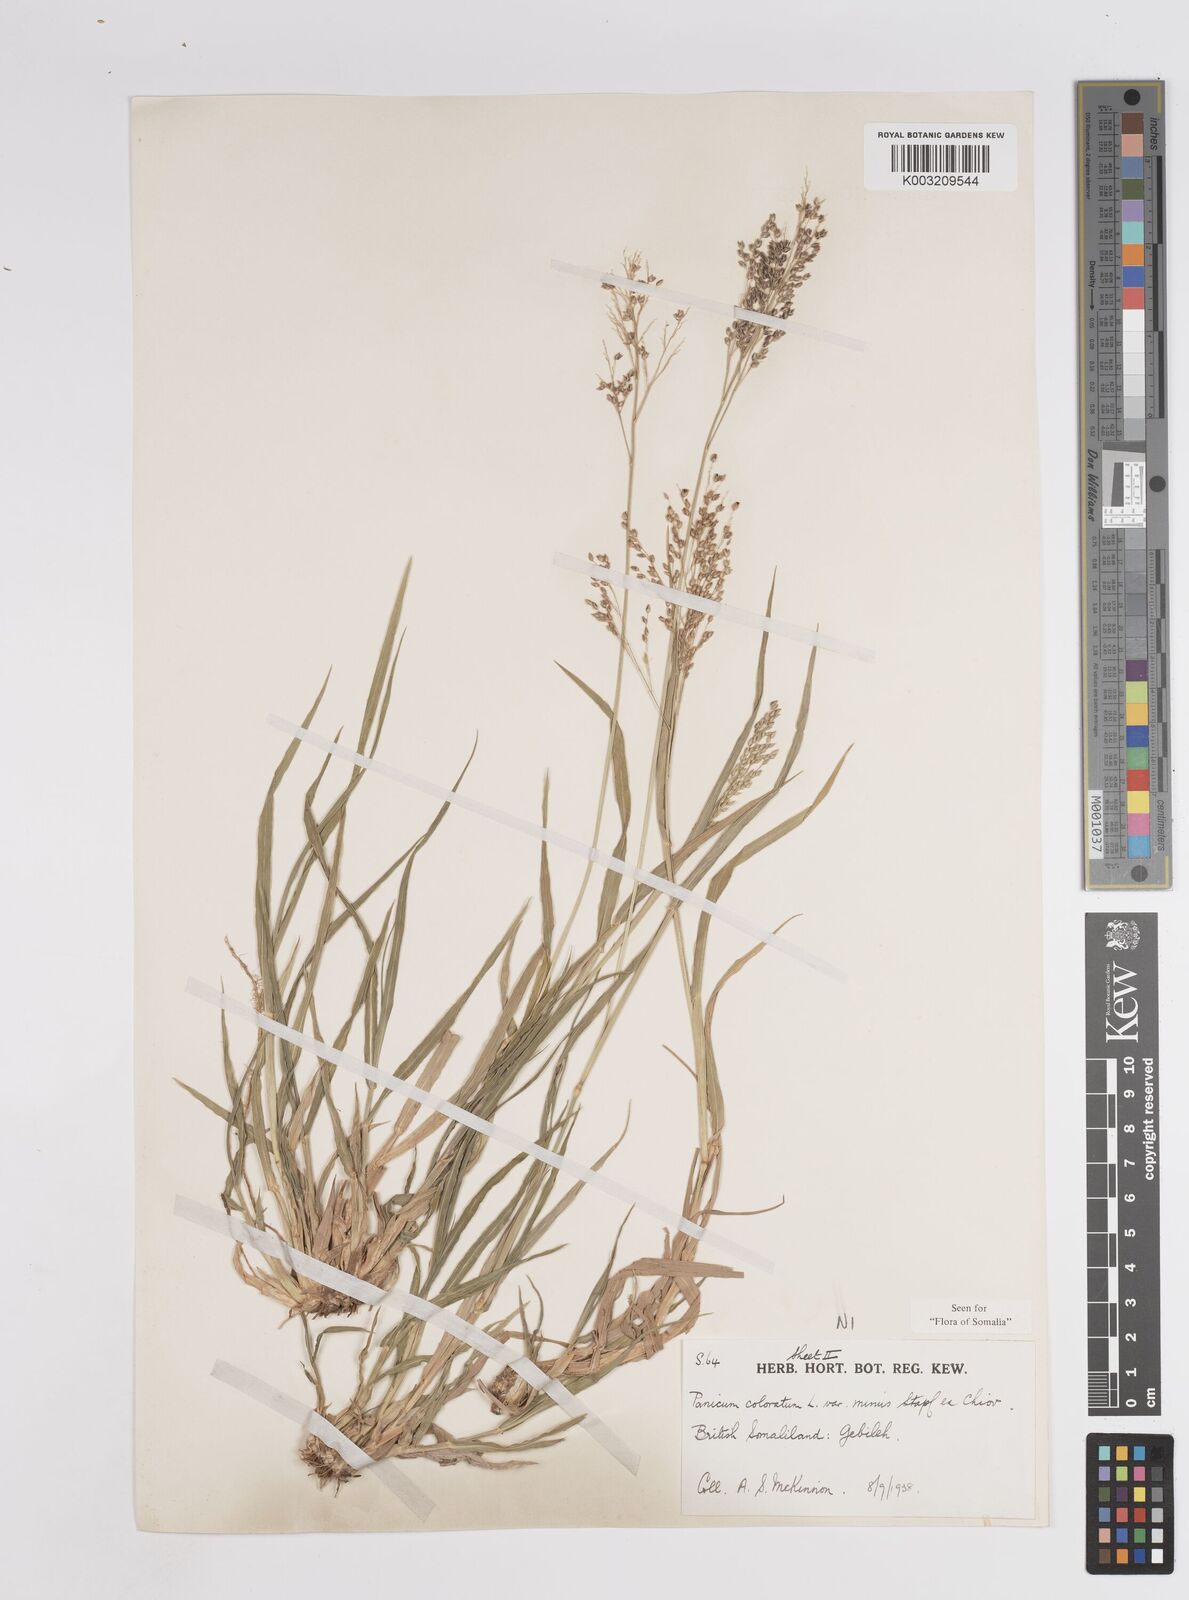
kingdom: Plantae
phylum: Tracheophyta
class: Liliopsida
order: Poales
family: Poaceae
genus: Panicum
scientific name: Panicum coloratum
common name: Kleingrass
